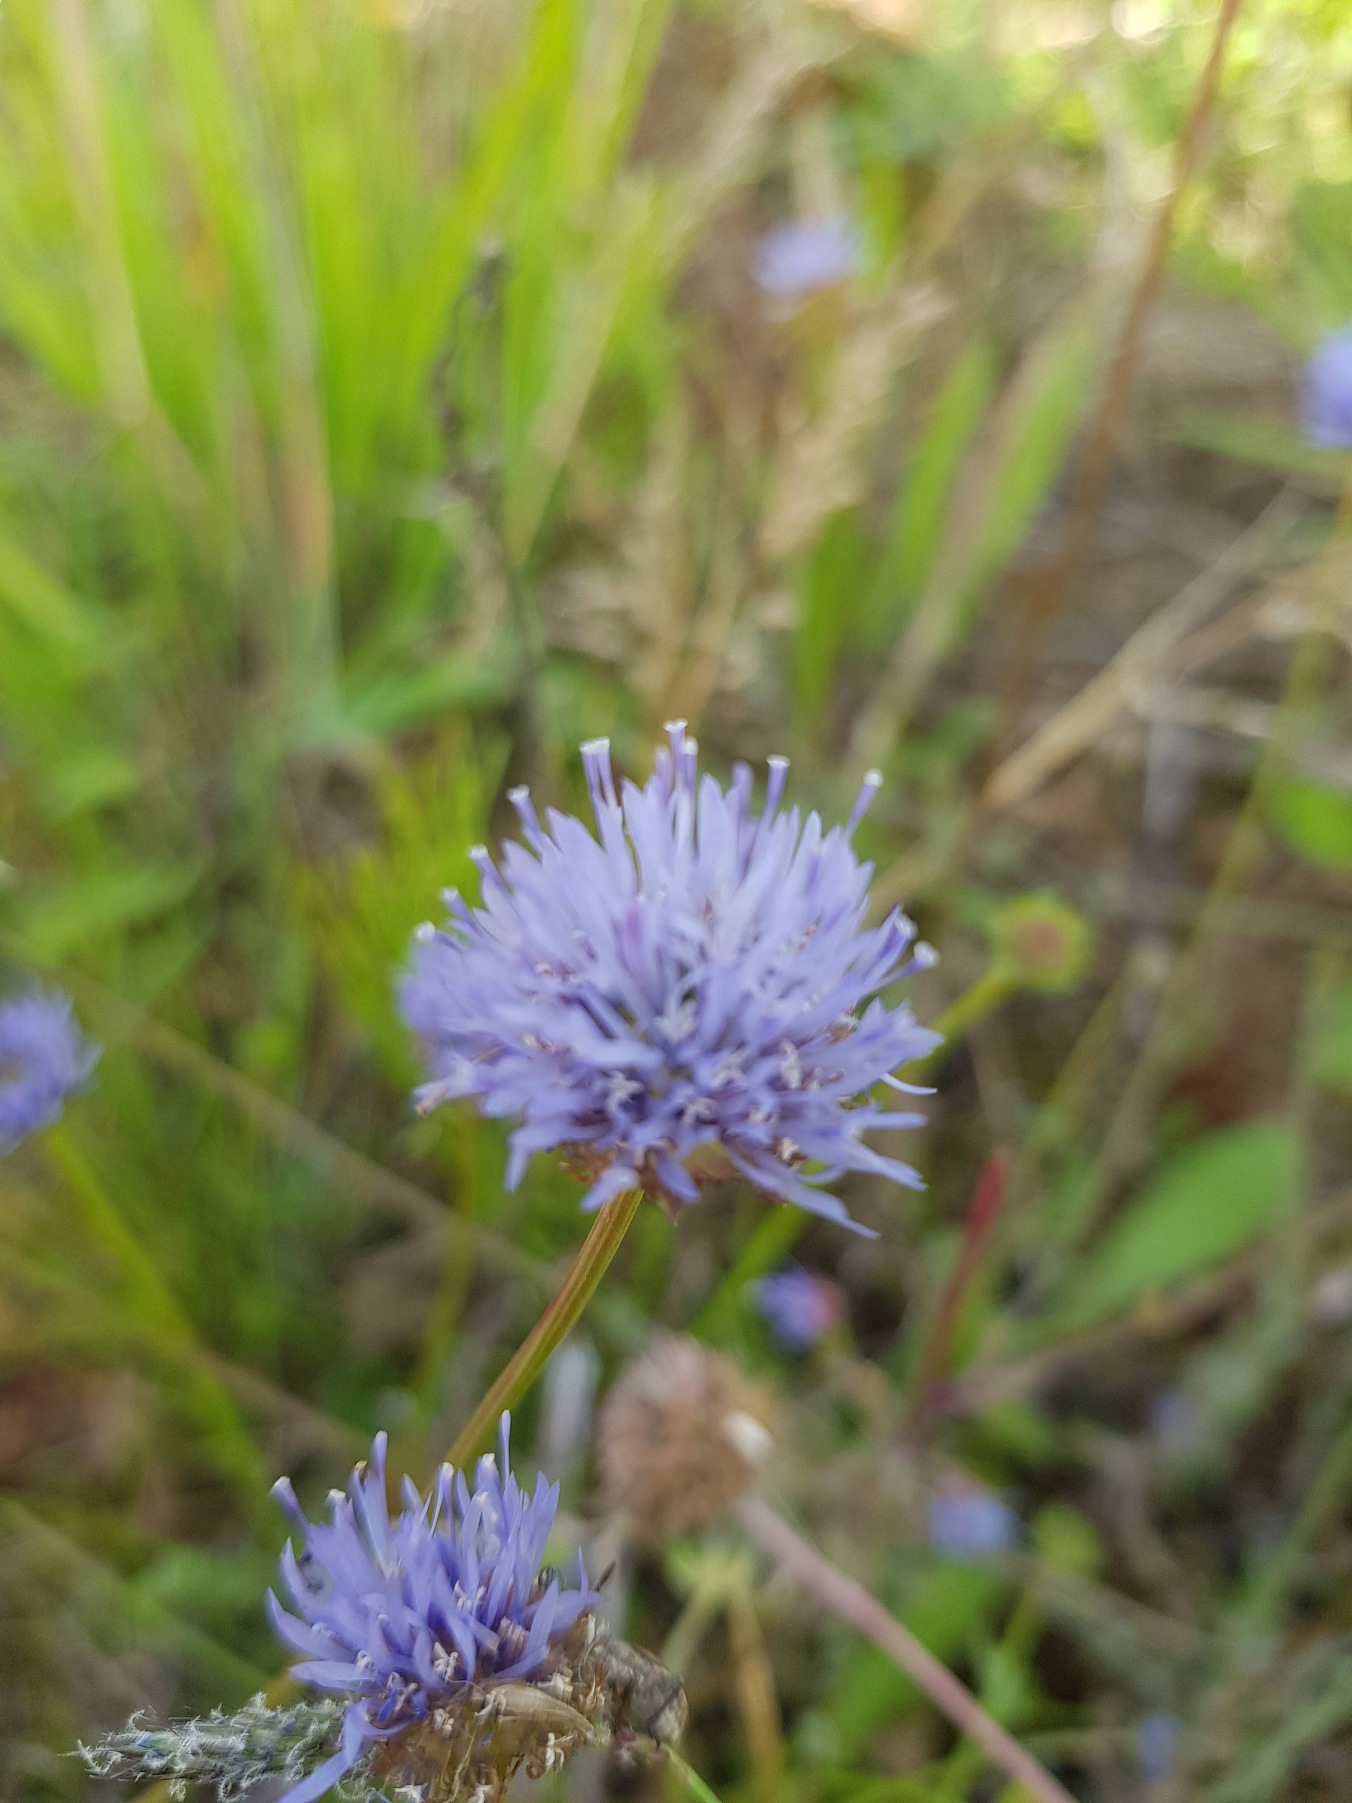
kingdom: Plantae
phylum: Tracheophyta
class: Magnoliopsida
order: Asterales
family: Campanulaceae
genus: Jasione
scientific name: Jasione montana
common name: Blåmunke
